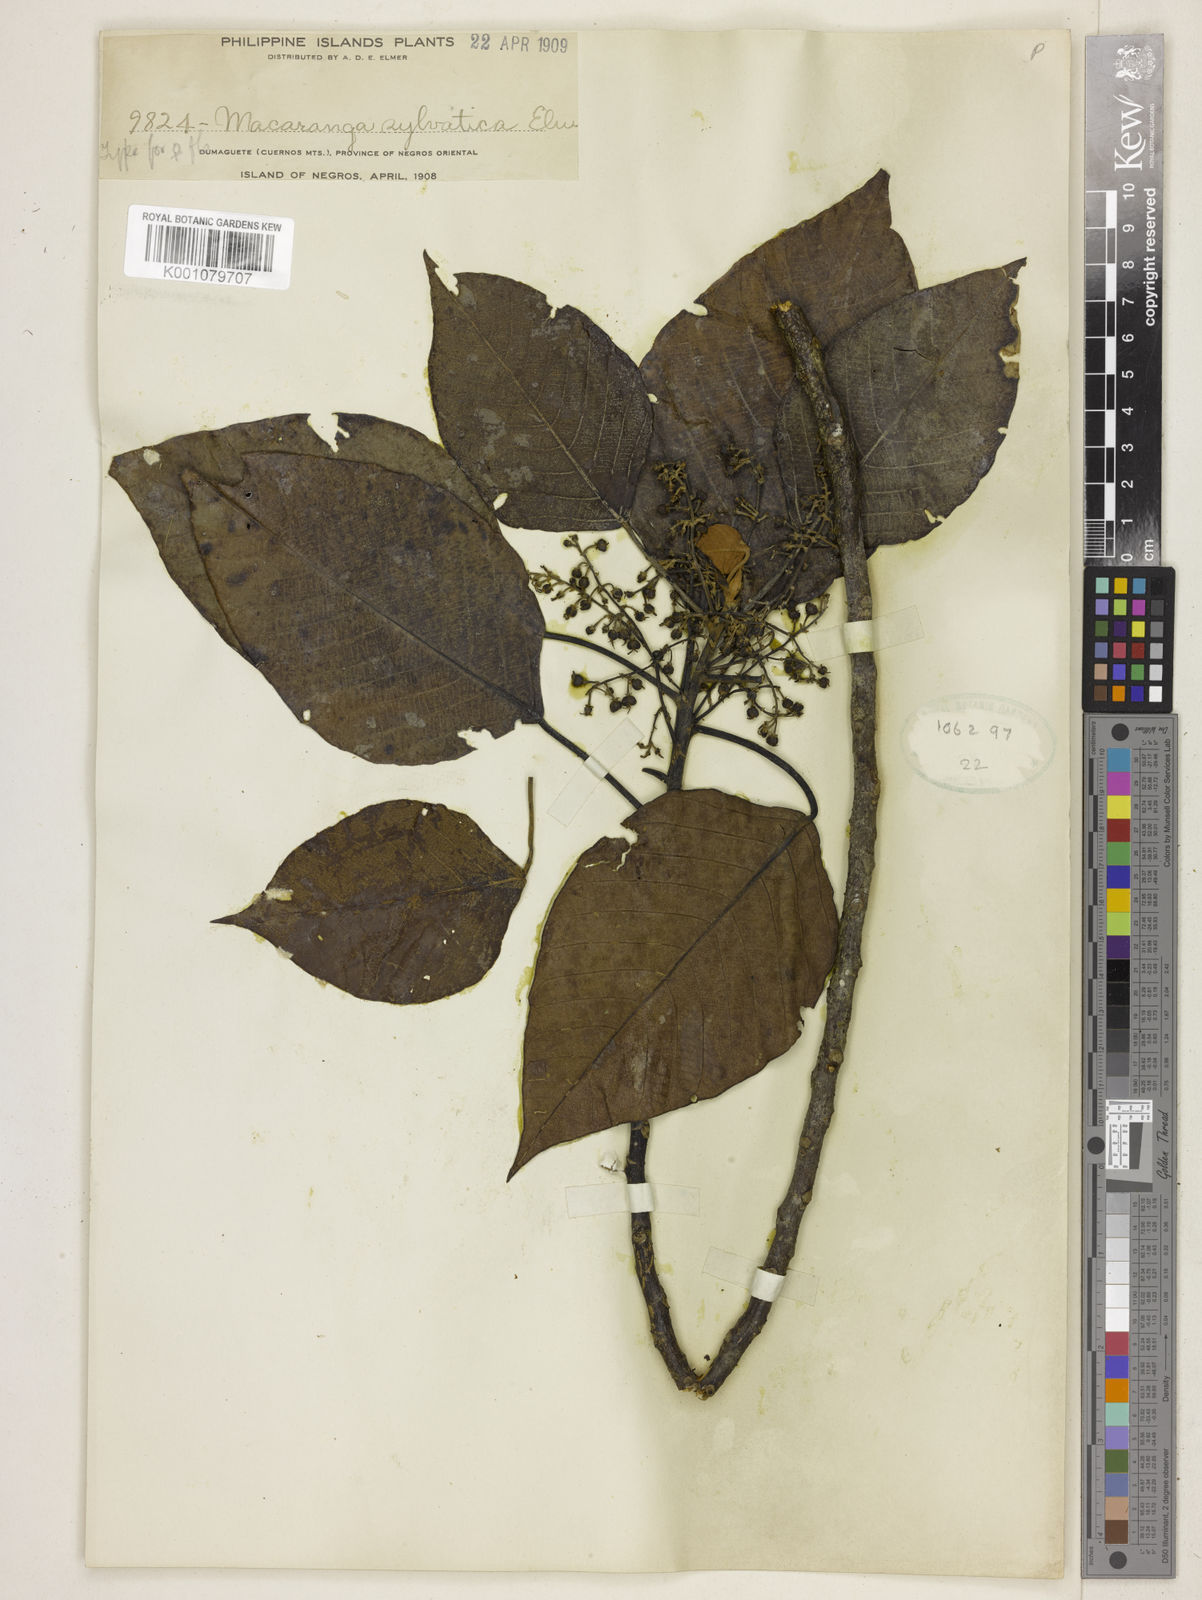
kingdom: Plantae
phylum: Tracheophyta
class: Magnoliopsida
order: Malpighiales
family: Euphorbiaceae
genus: Macaranga
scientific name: Macaranga sylvatica
